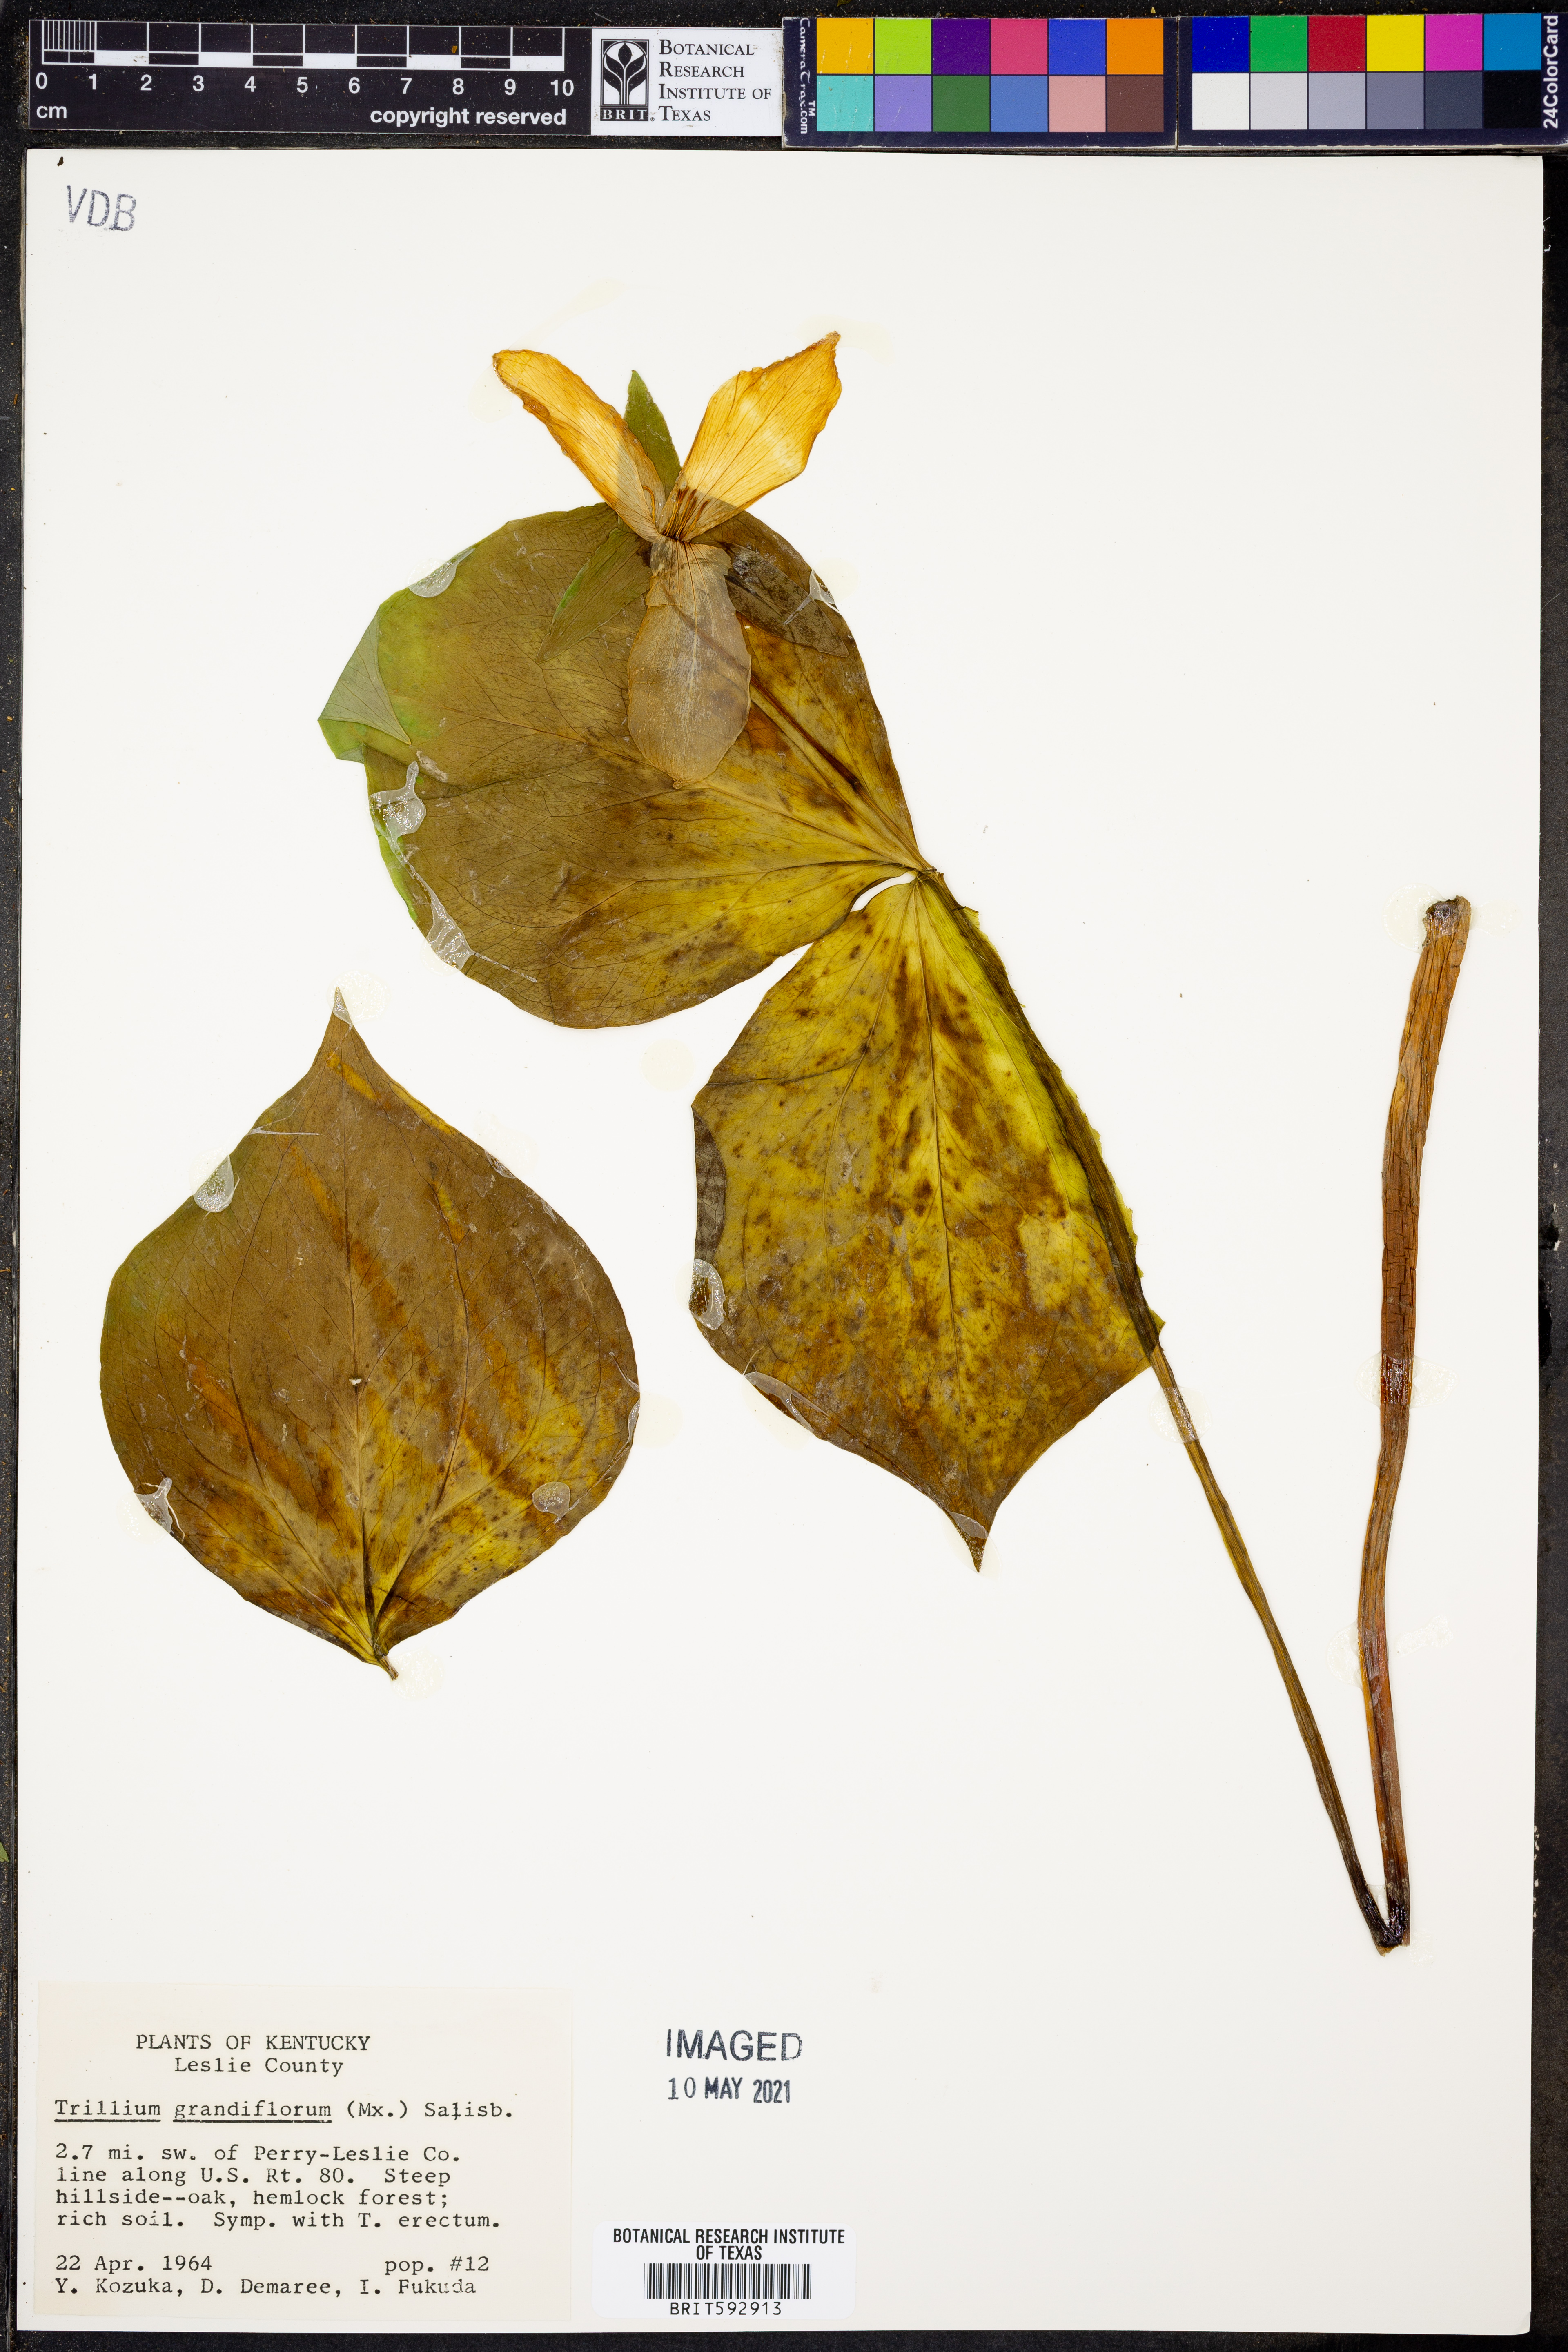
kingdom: Plantae
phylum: Tracheophyta
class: Liliopsida
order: Liliales
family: Melanthiaceae
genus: Trillium
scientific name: Trillium grandiflorum
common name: Great white trillium
